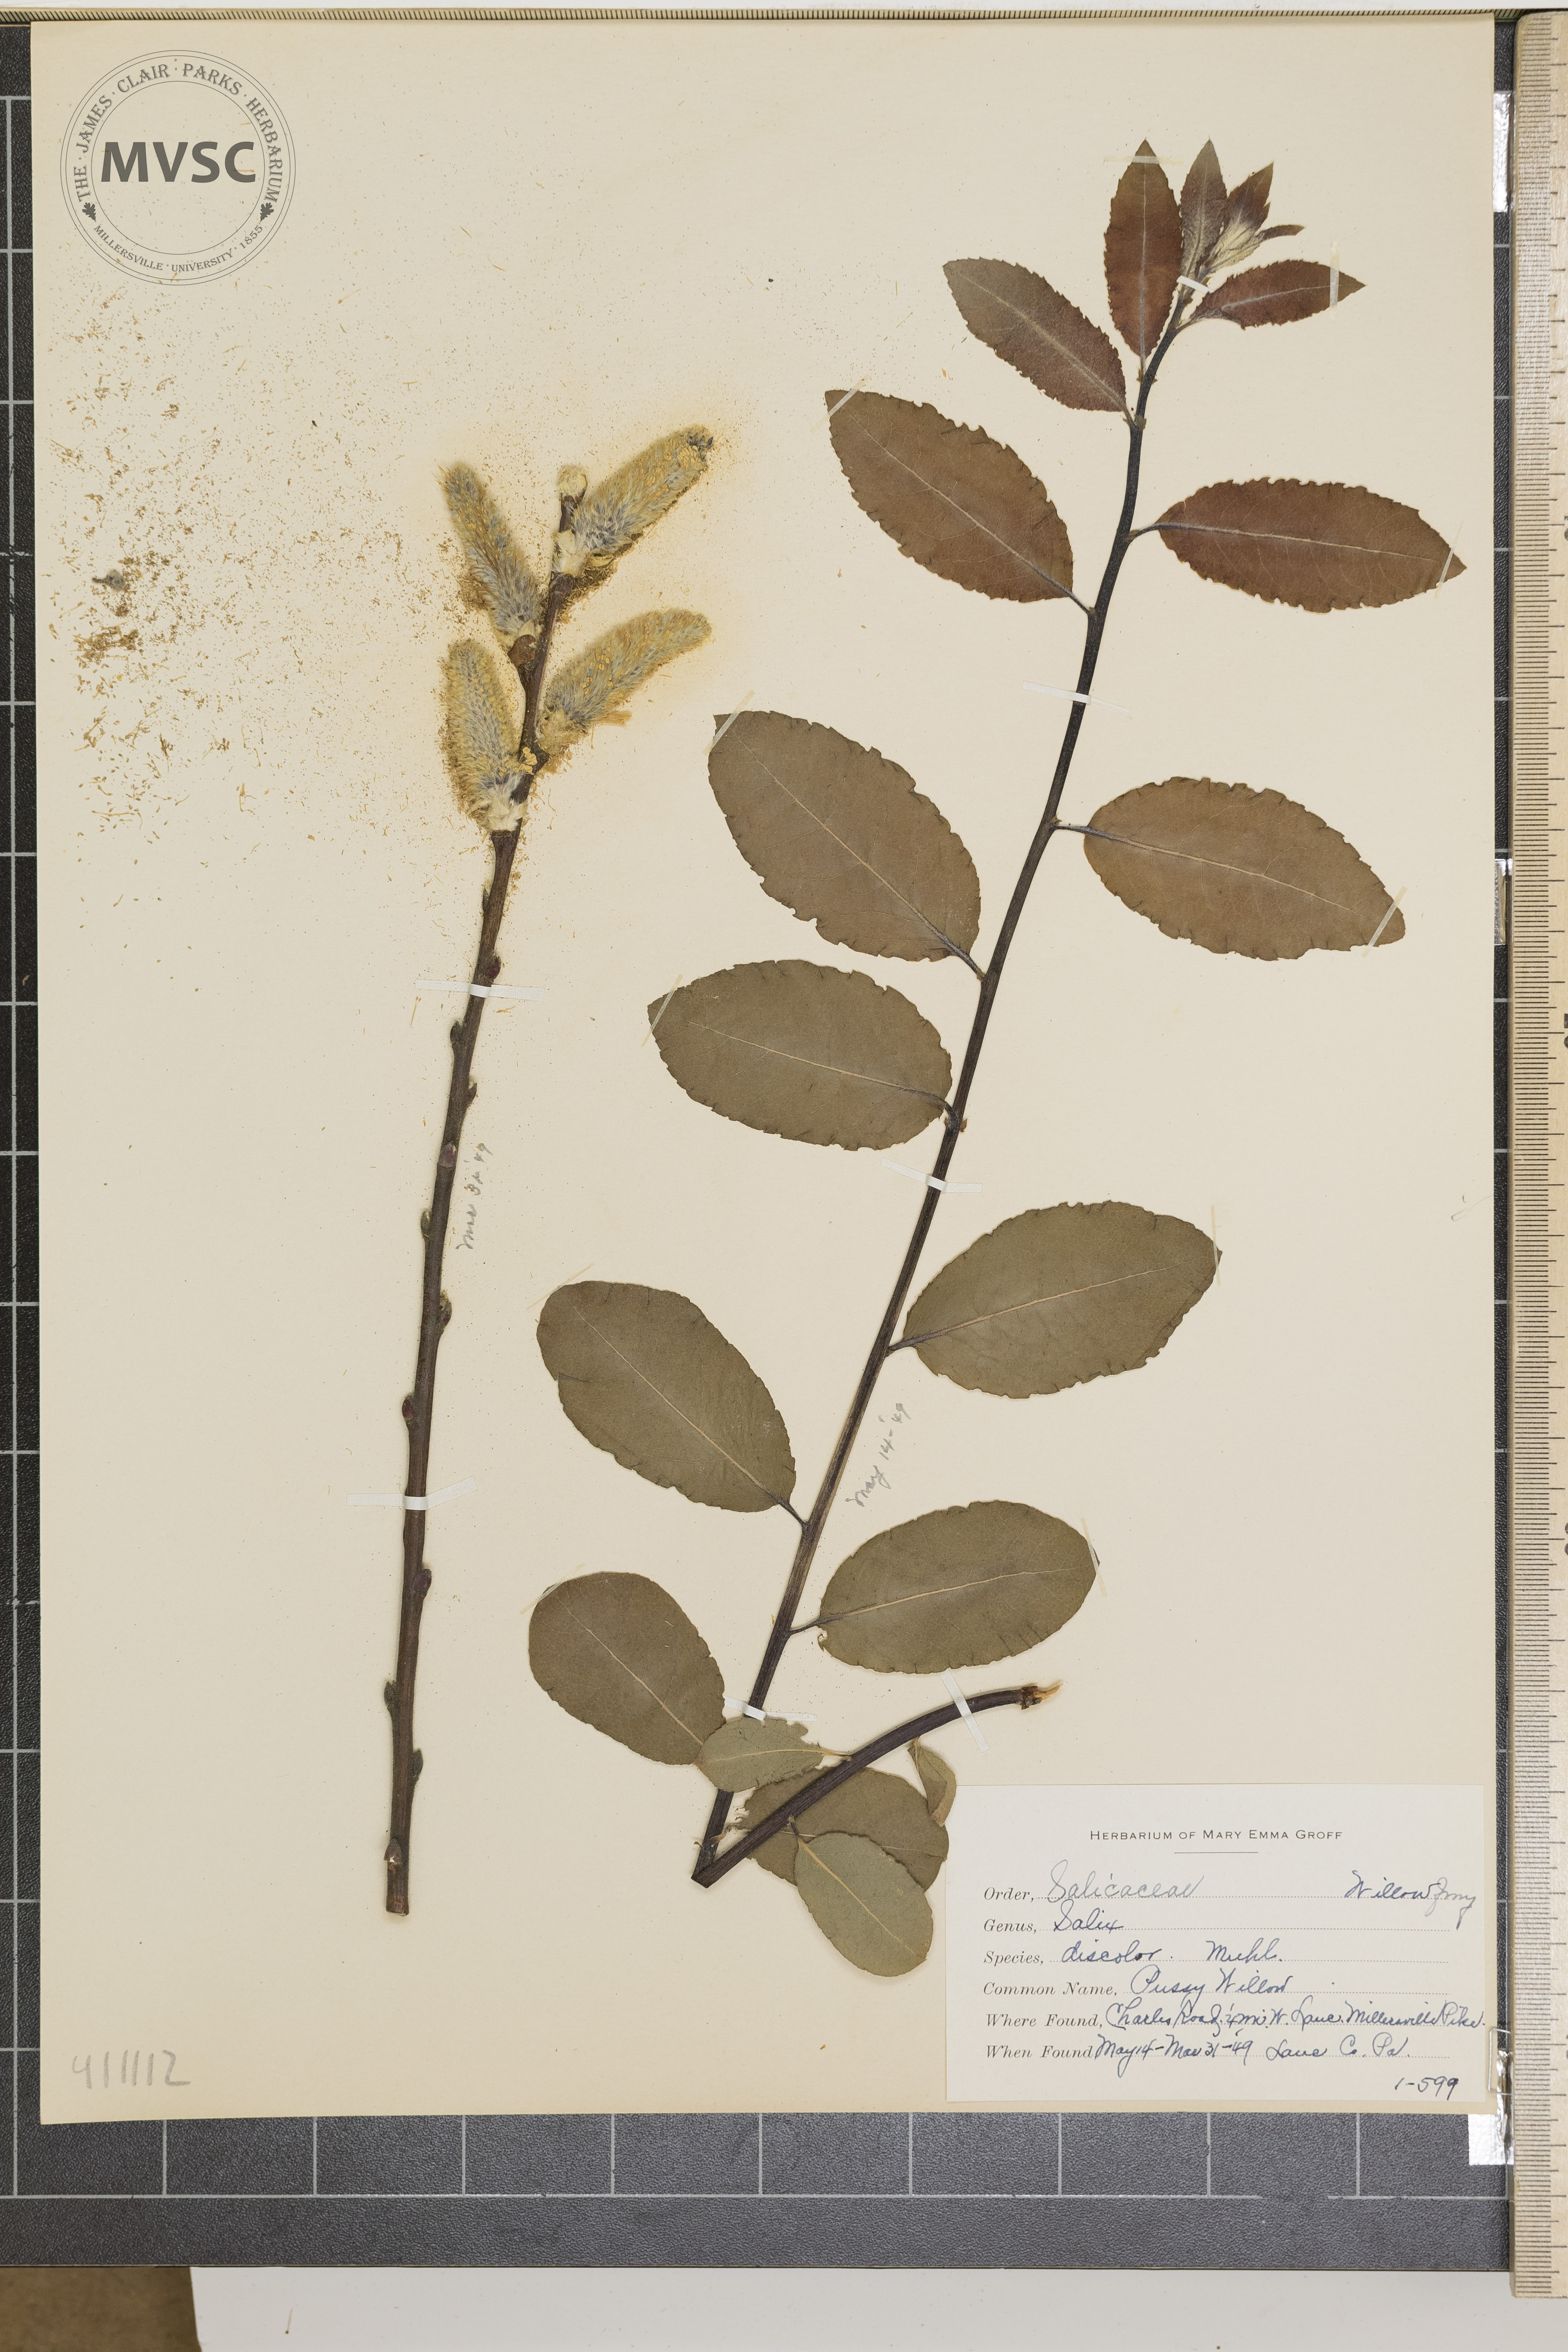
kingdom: Plantae
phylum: Tracheophyta
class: Magnoliopsida
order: Malpighiales
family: Salicaceae
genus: Salix
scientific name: Salix discolor
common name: Pussy Willow
